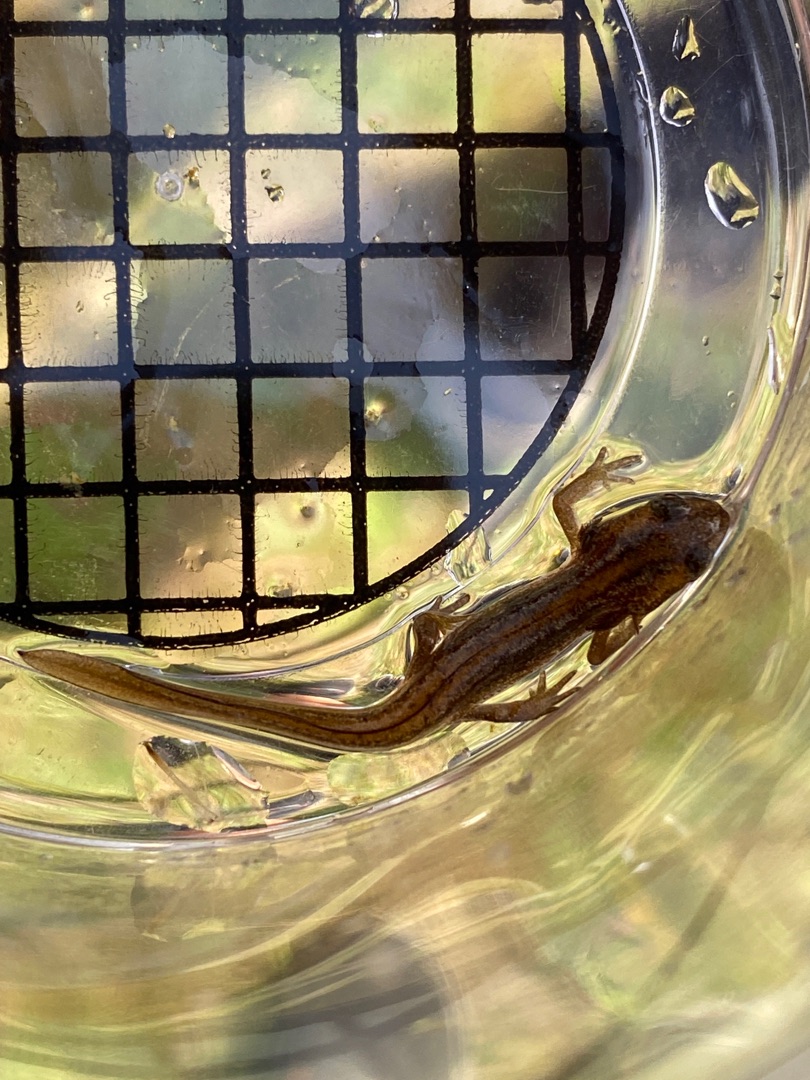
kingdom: Animalia
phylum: Chordata
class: Amphibia
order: Caudata
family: Salamandridae
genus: Lissotriton
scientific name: Lissotriton vulgaris
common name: Lille vandsalamander
